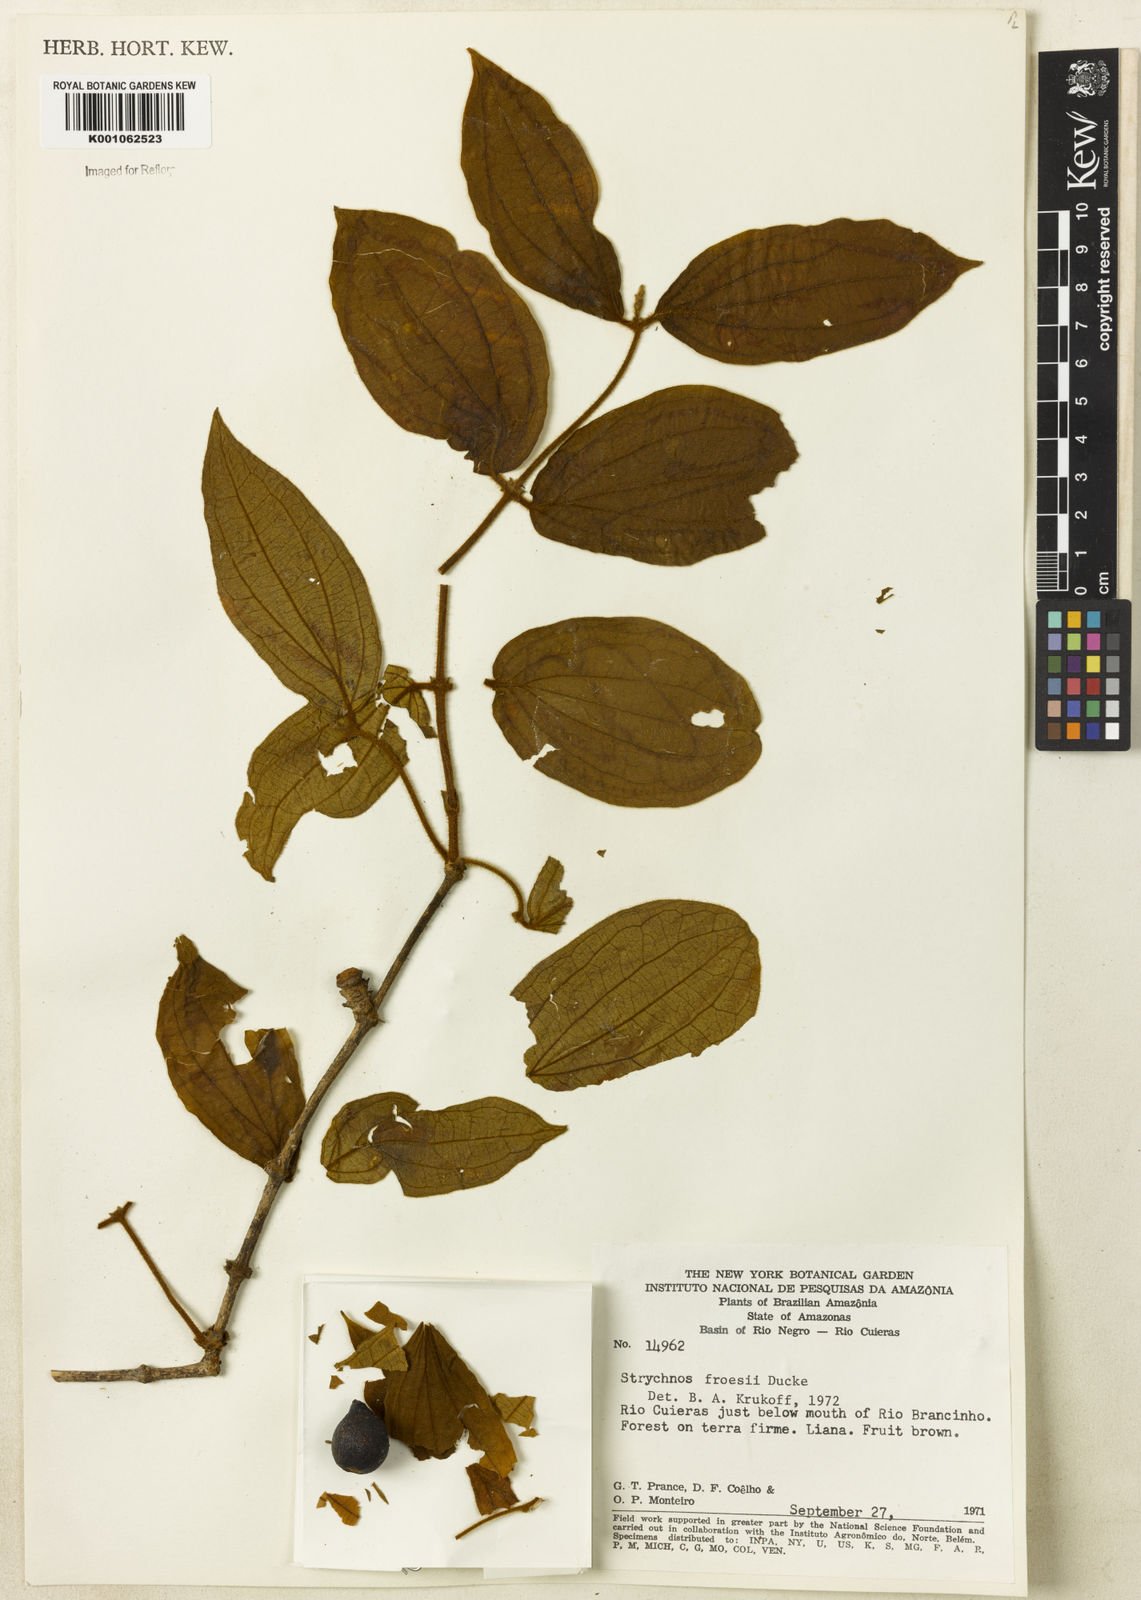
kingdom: Plantae
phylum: Tracheophyta
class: Magnoliopsida
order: Gentianales
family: Loganiaceae
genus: Strychnos
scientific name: Strychnos froesii
